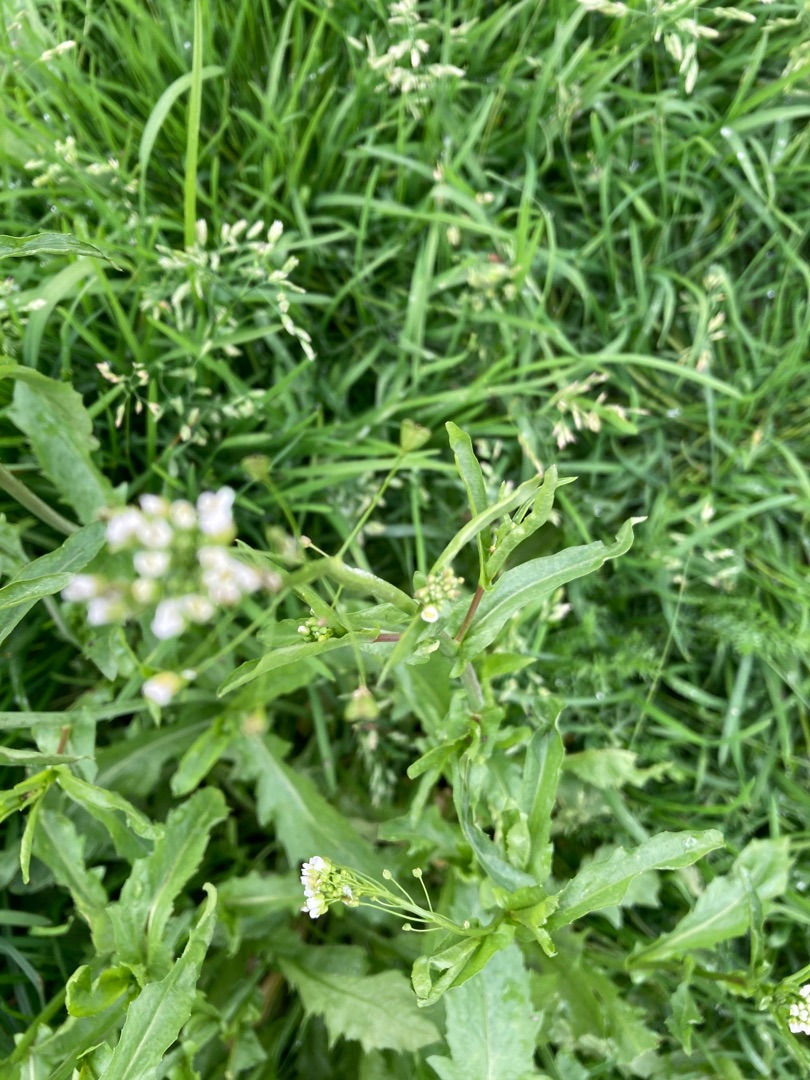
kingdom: Plantae
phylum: Tracheophyta
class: Magnoliopsida
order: Brassicales
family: Brassicaceae
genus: Capsella
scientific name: Capsella bursa-pastoris
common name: Hyrdetaske
